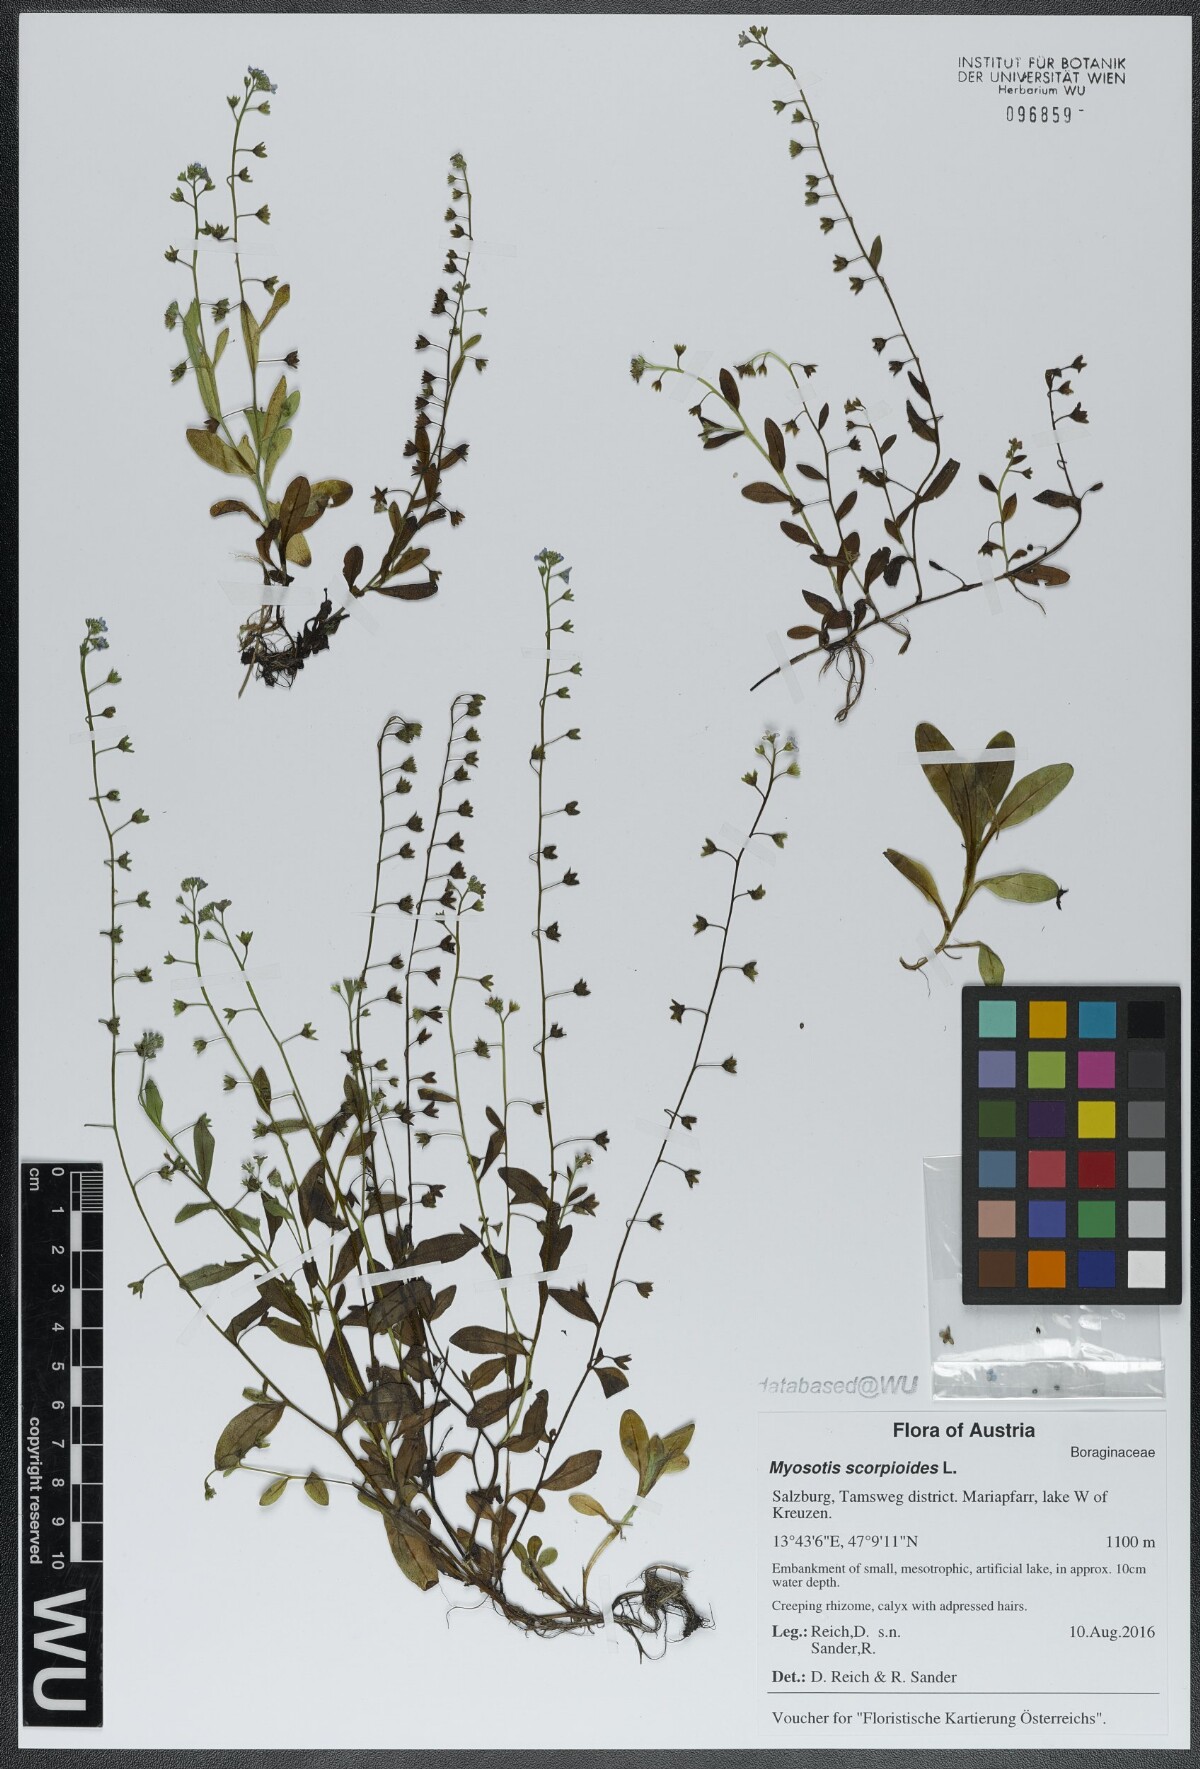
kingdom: Plantae
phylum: Tracheophyta
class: Magnoliopsida
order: Boraginales
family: Boraginaceae
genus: Myosotis
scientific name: Myosotis scorpioides
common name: Water forget-me-not
